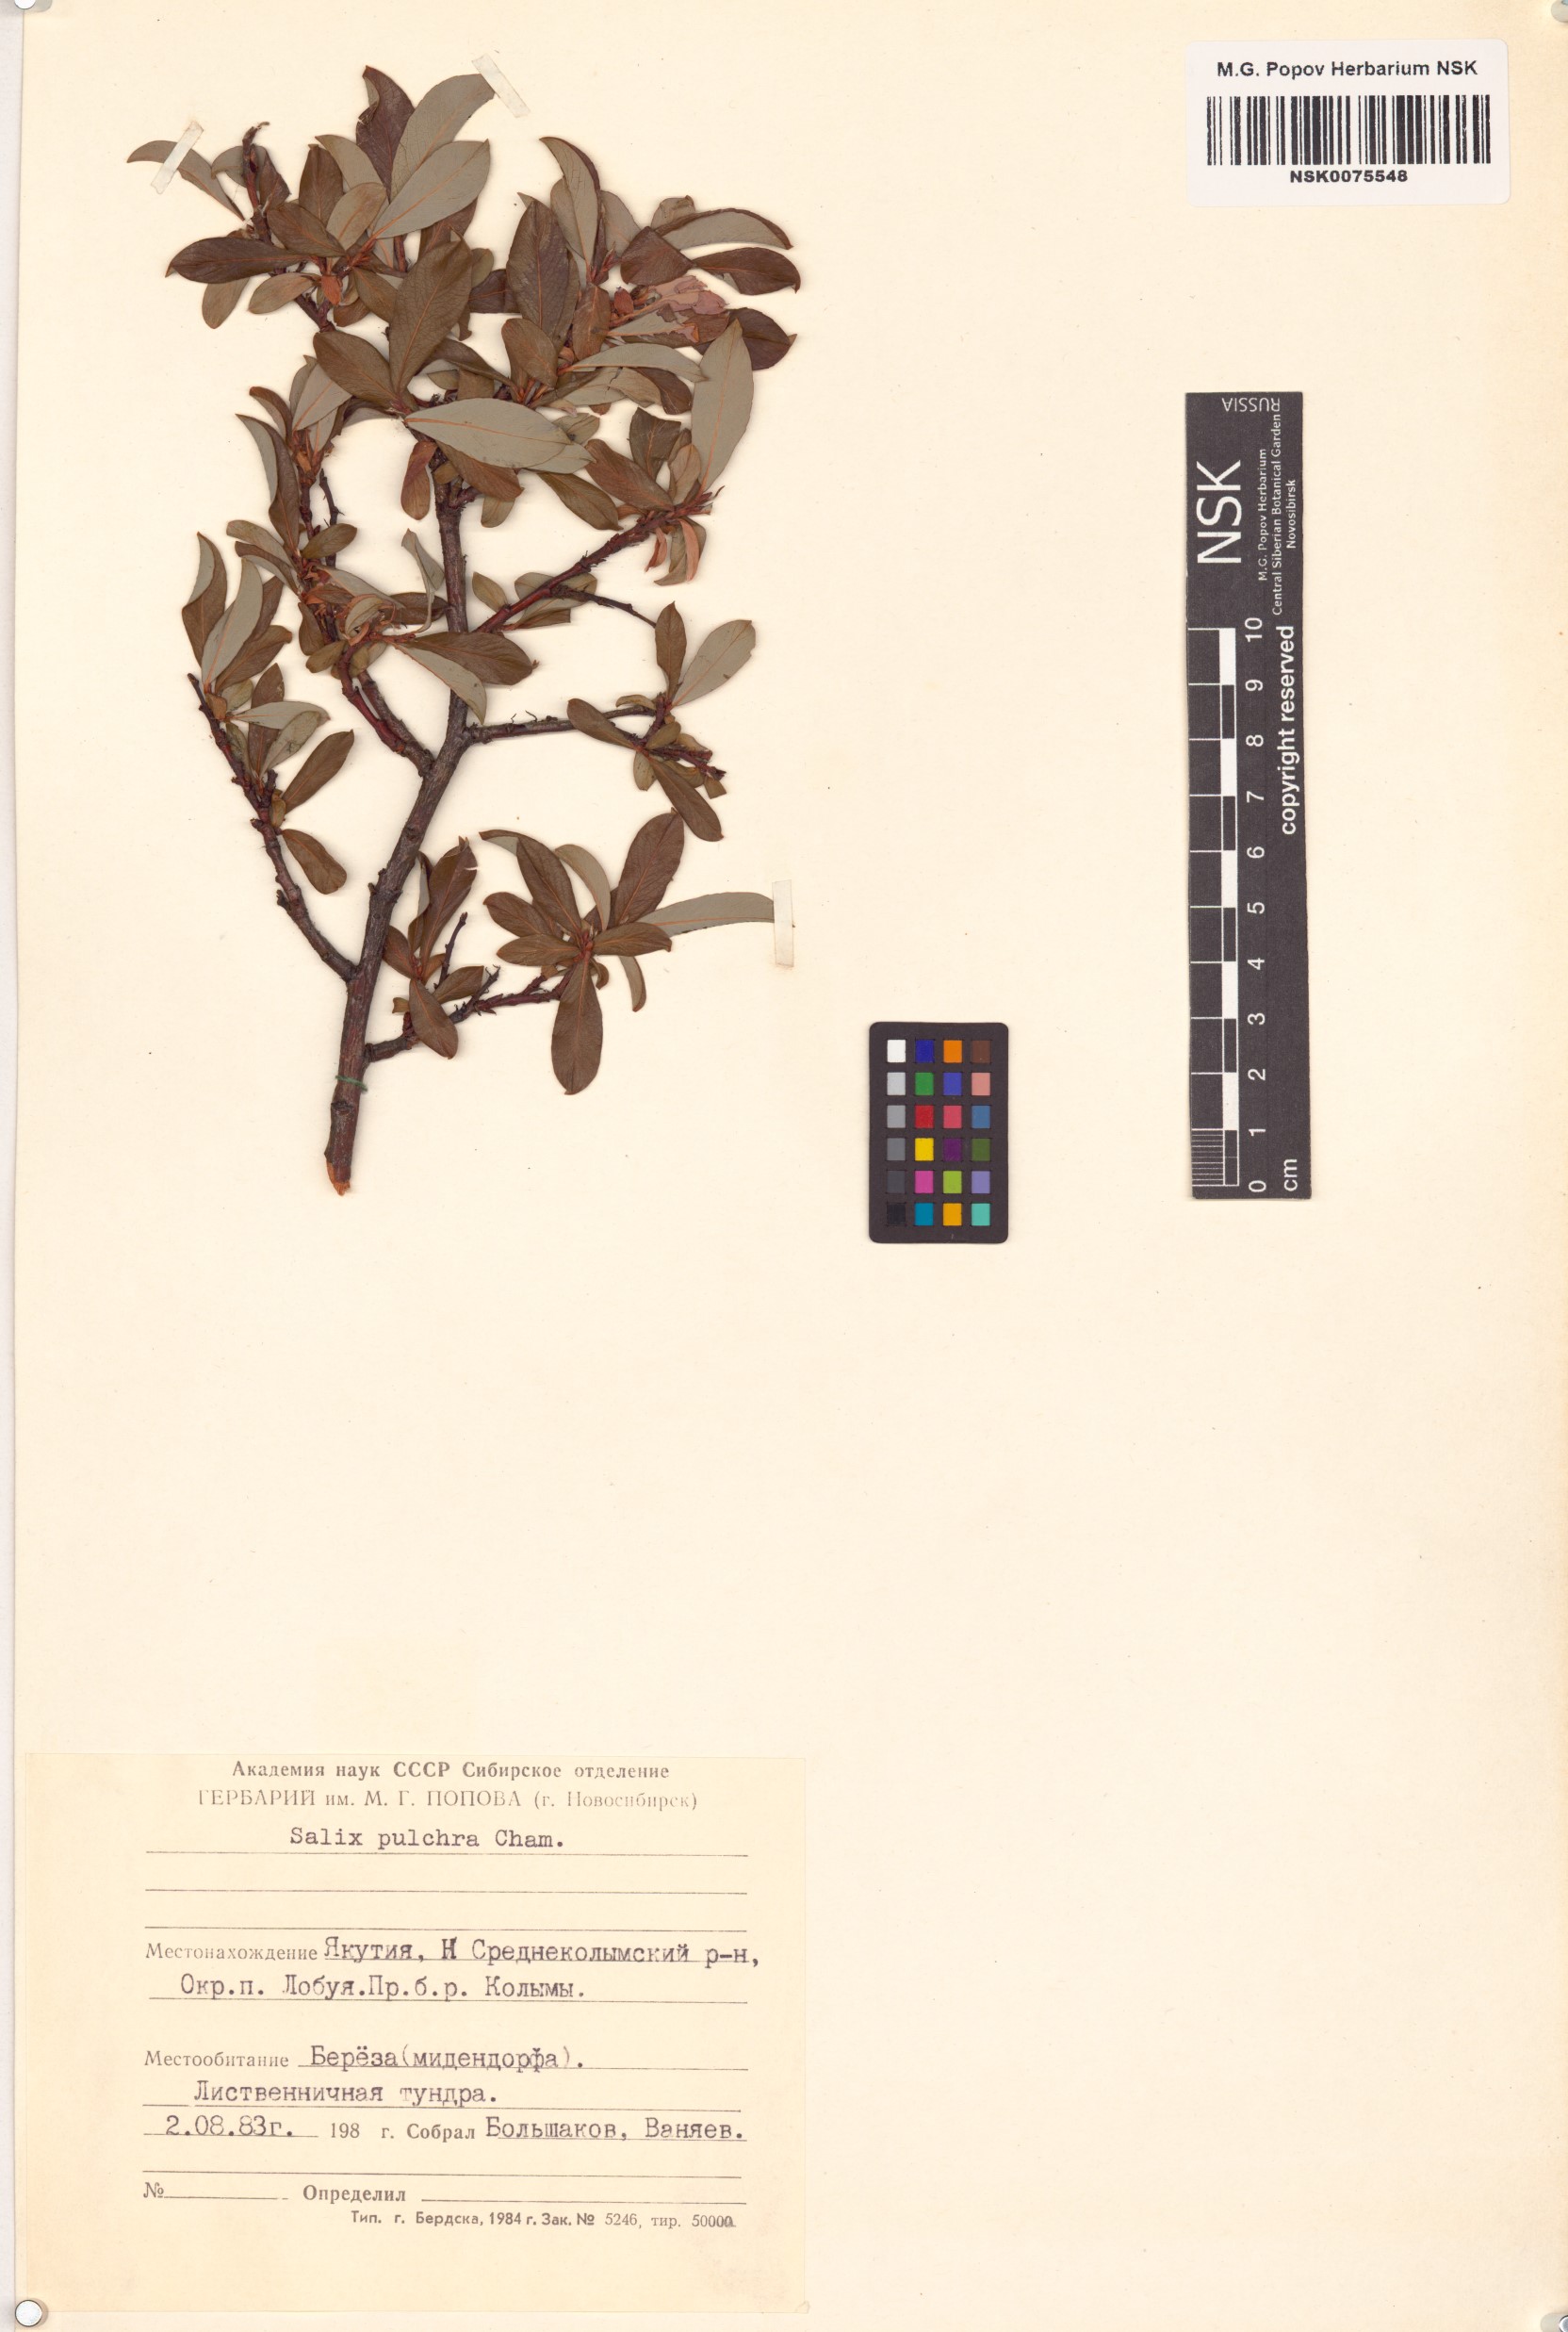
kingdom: Plantae
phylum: Tracheophyta
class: Magnoliopsida
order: Malpighiales
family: Salicaceae
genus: Salix
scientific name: Salix pulchra
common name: Diamond-leaved willow
